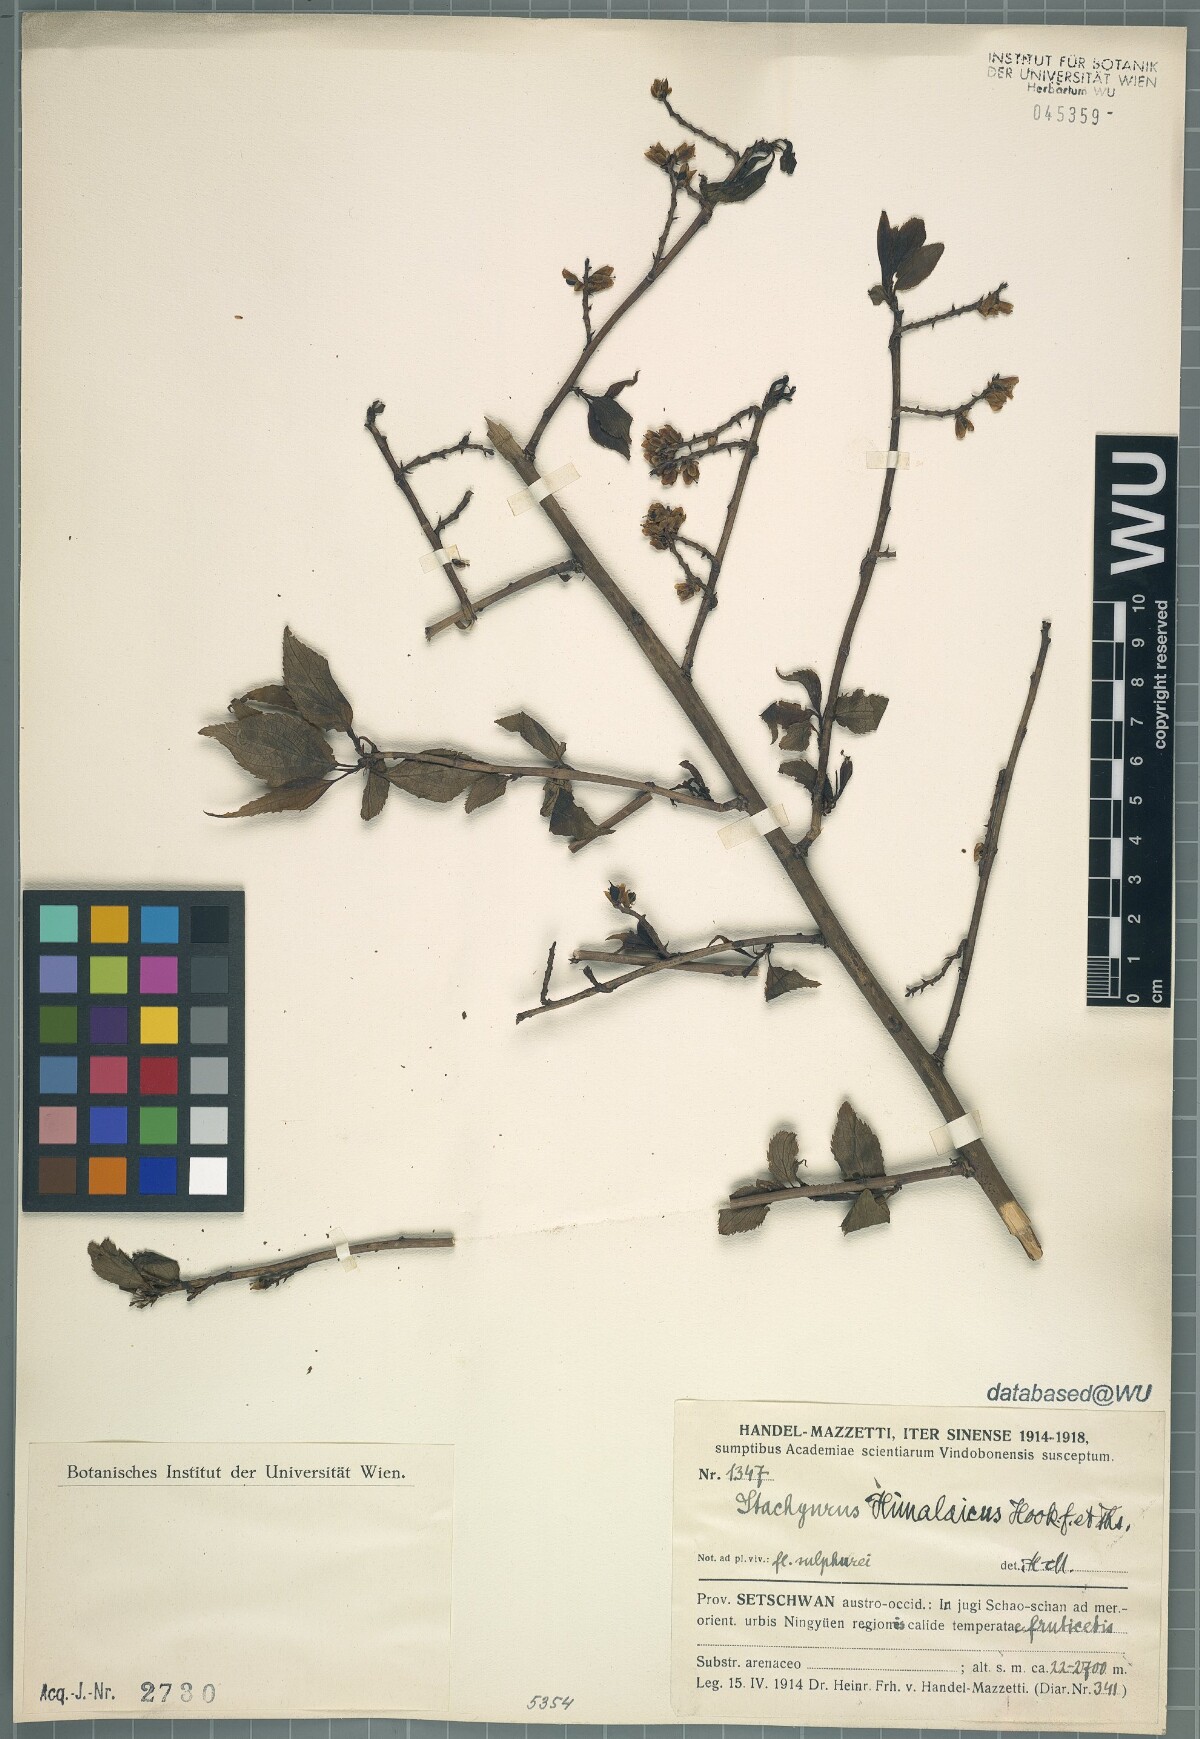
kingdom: Plantae
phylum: Tracheophyta
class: Magnoliopsida
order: Crossosomatales
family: Stachyuraceae
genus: Stachyurus
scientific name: Stachyurus himalaicus
